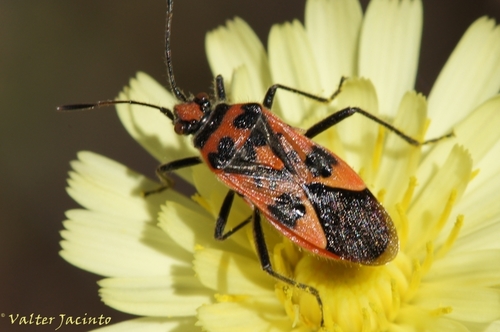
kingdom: Animalia
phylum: Arthropoda
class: Insecta
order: Hemiptera
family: Rhopalidae
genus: Corizus
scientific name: Corizus hyoscyami
